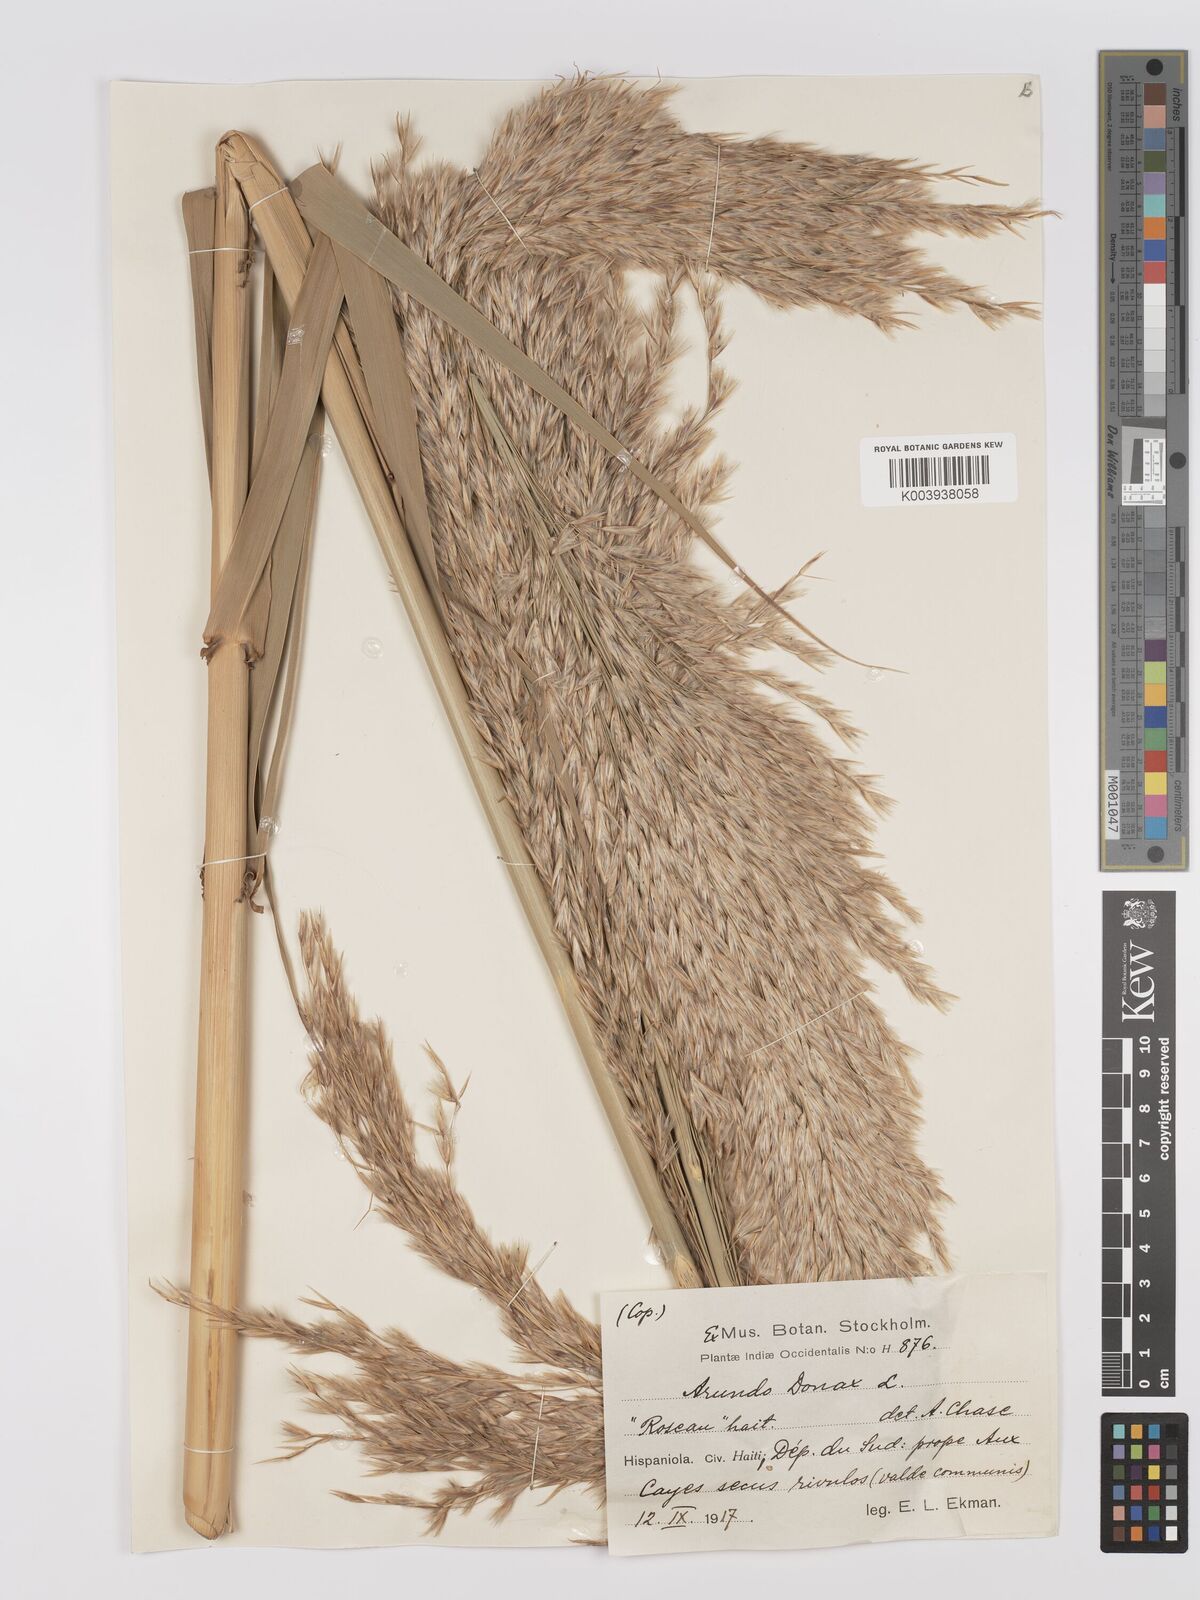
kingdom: Plantae
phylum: Tracheophyta
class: Liliopsida
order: Poales
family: Poaceae
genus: Arundo
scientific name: Arundo donax
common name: Giant reed
